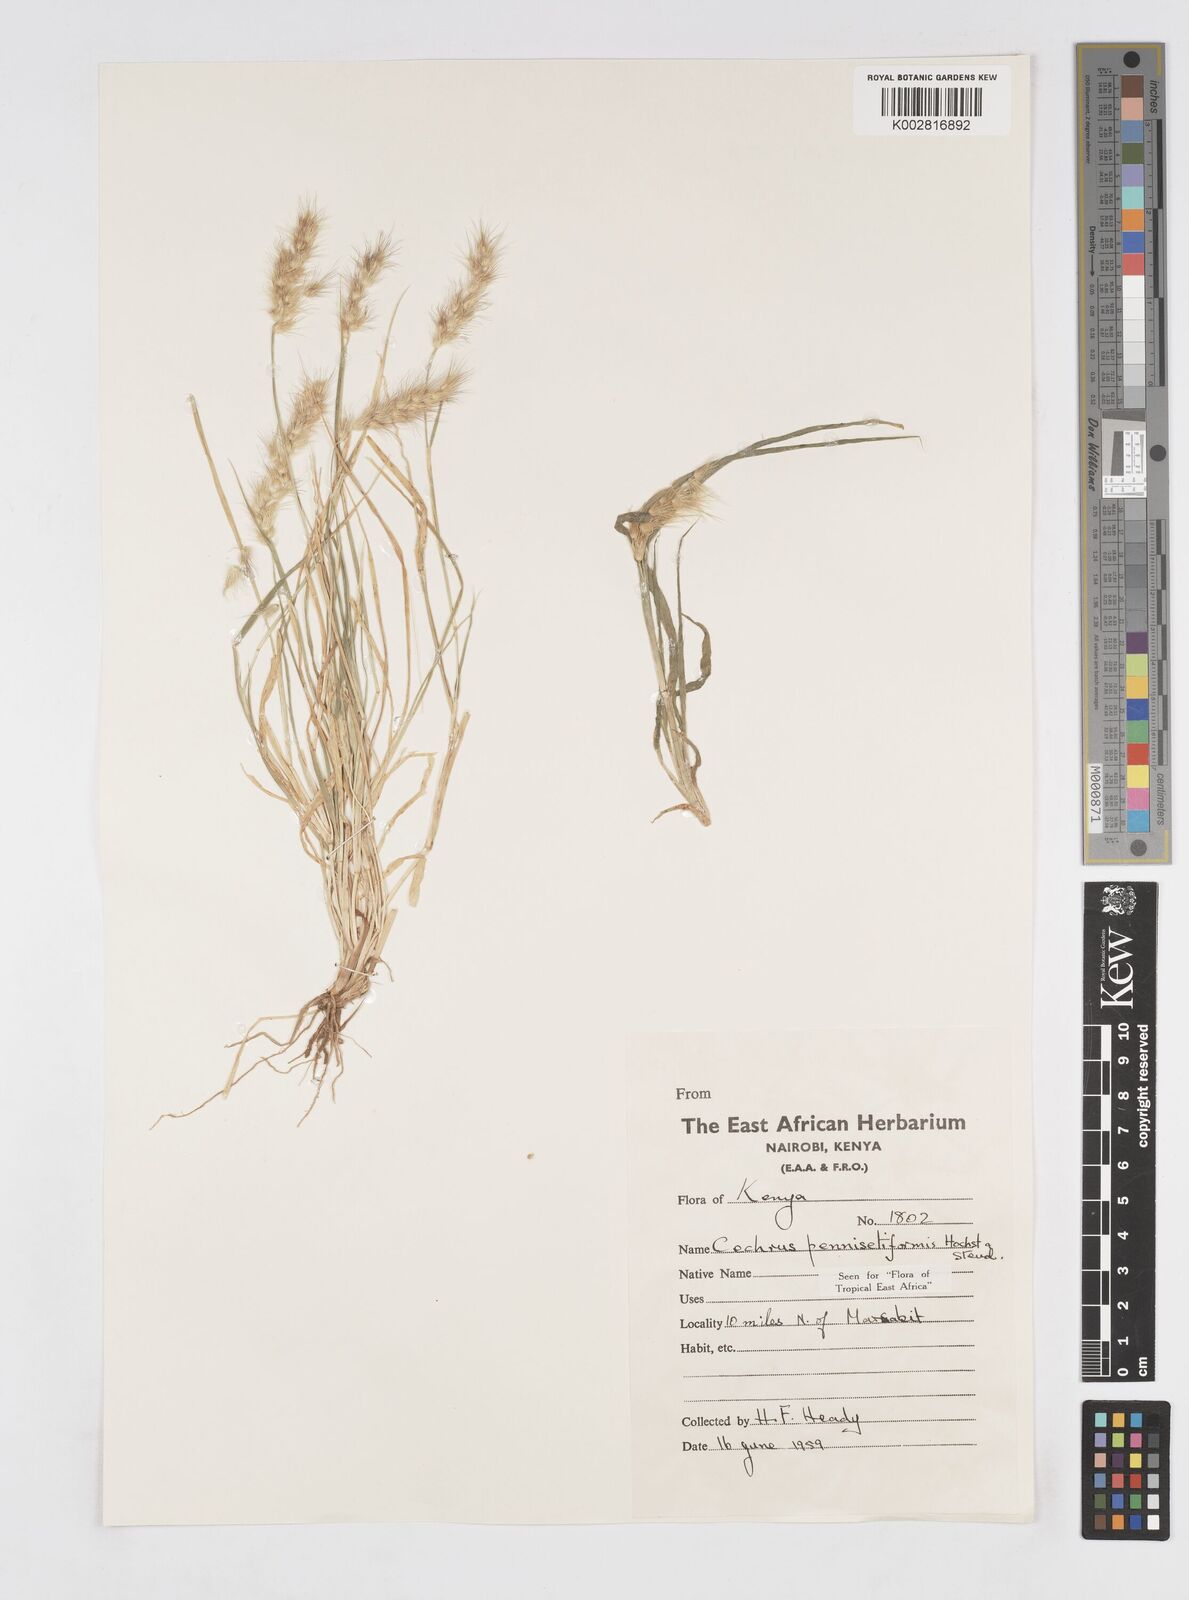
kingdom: Plantae
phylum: Tracheophyta
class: Liliopsida
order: Poales
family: Poaceae
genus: Cenchrus
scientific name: Cenchrus pennisetiformis
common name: Cloncurry
